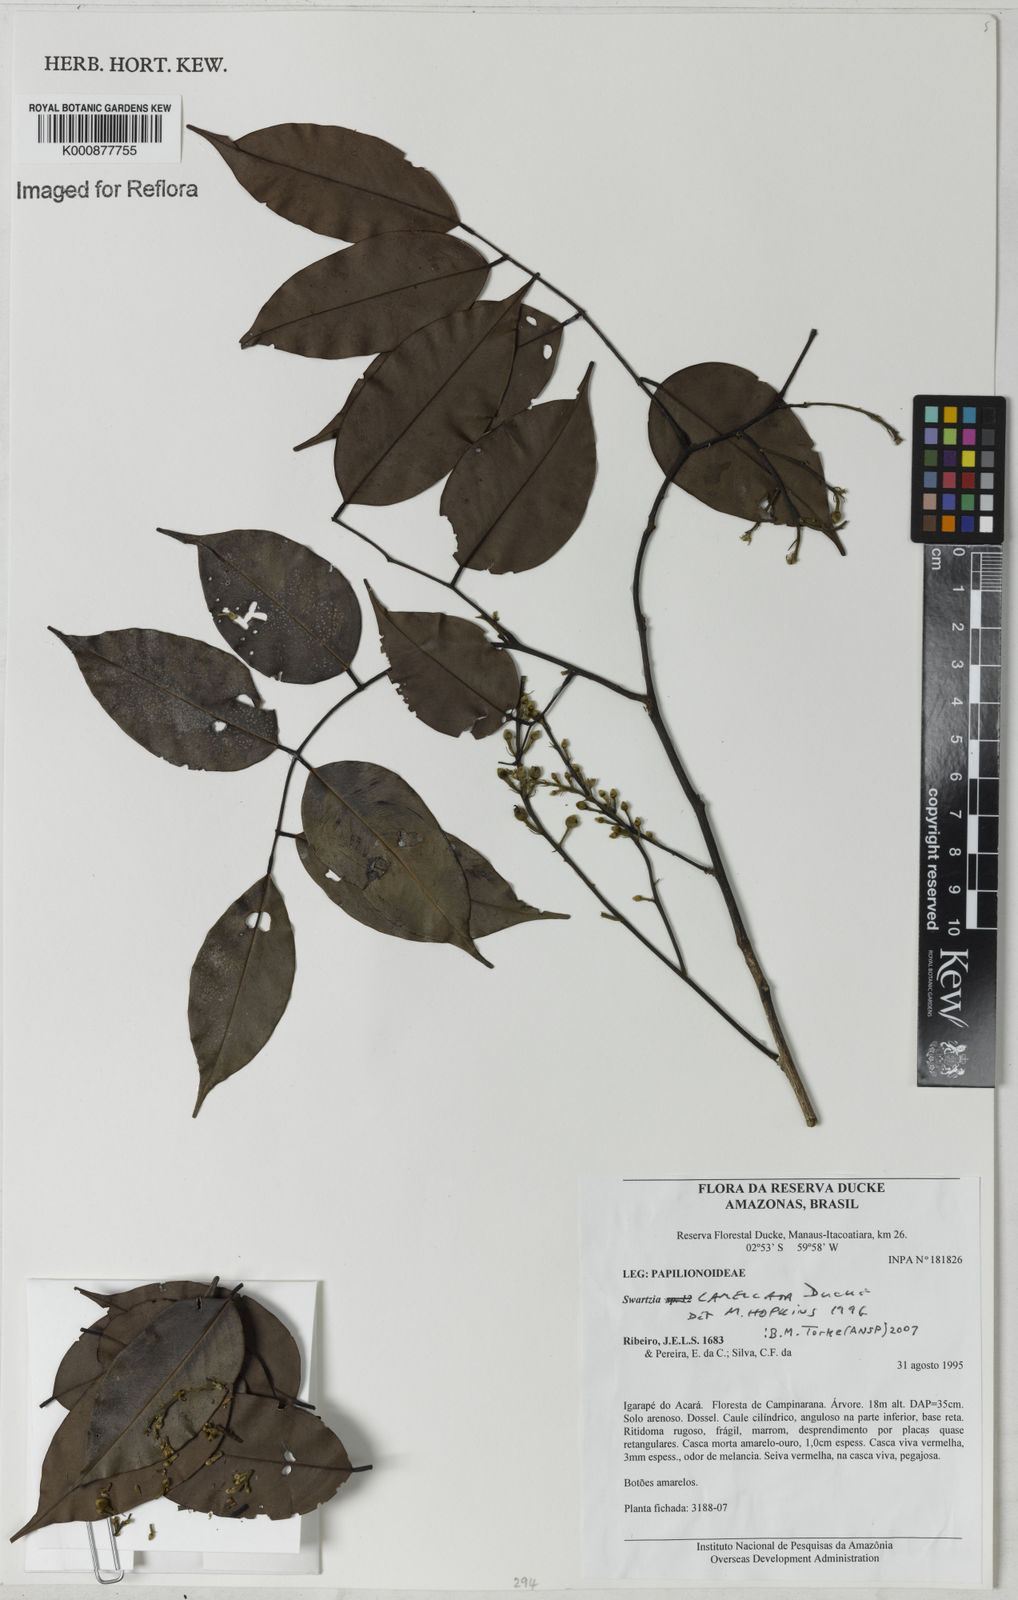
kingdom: Plantae
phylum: Tracheophyta
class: Magnoliopsida
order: Fabales
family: Fabaceae
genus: Swartzia
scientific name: Swartzia lamellata
